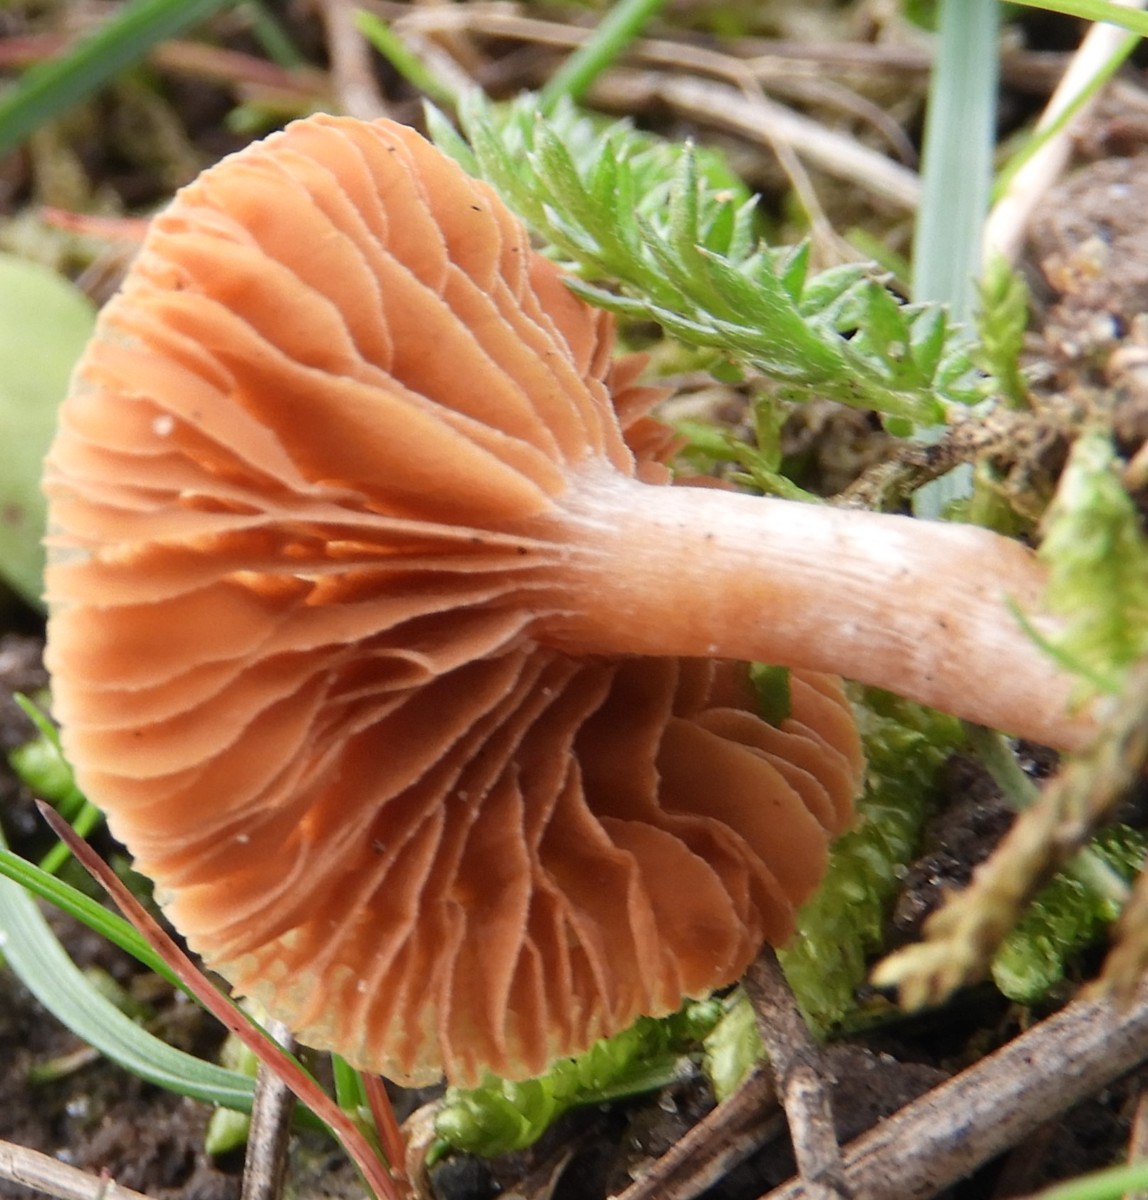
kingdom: Fungi
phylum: Basidiomycota
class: Agaricomycetes
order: Agaricales
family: Tubariaceae
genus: Tubaria
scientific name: Tubaria furfuracea
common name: kliddet fnughat
